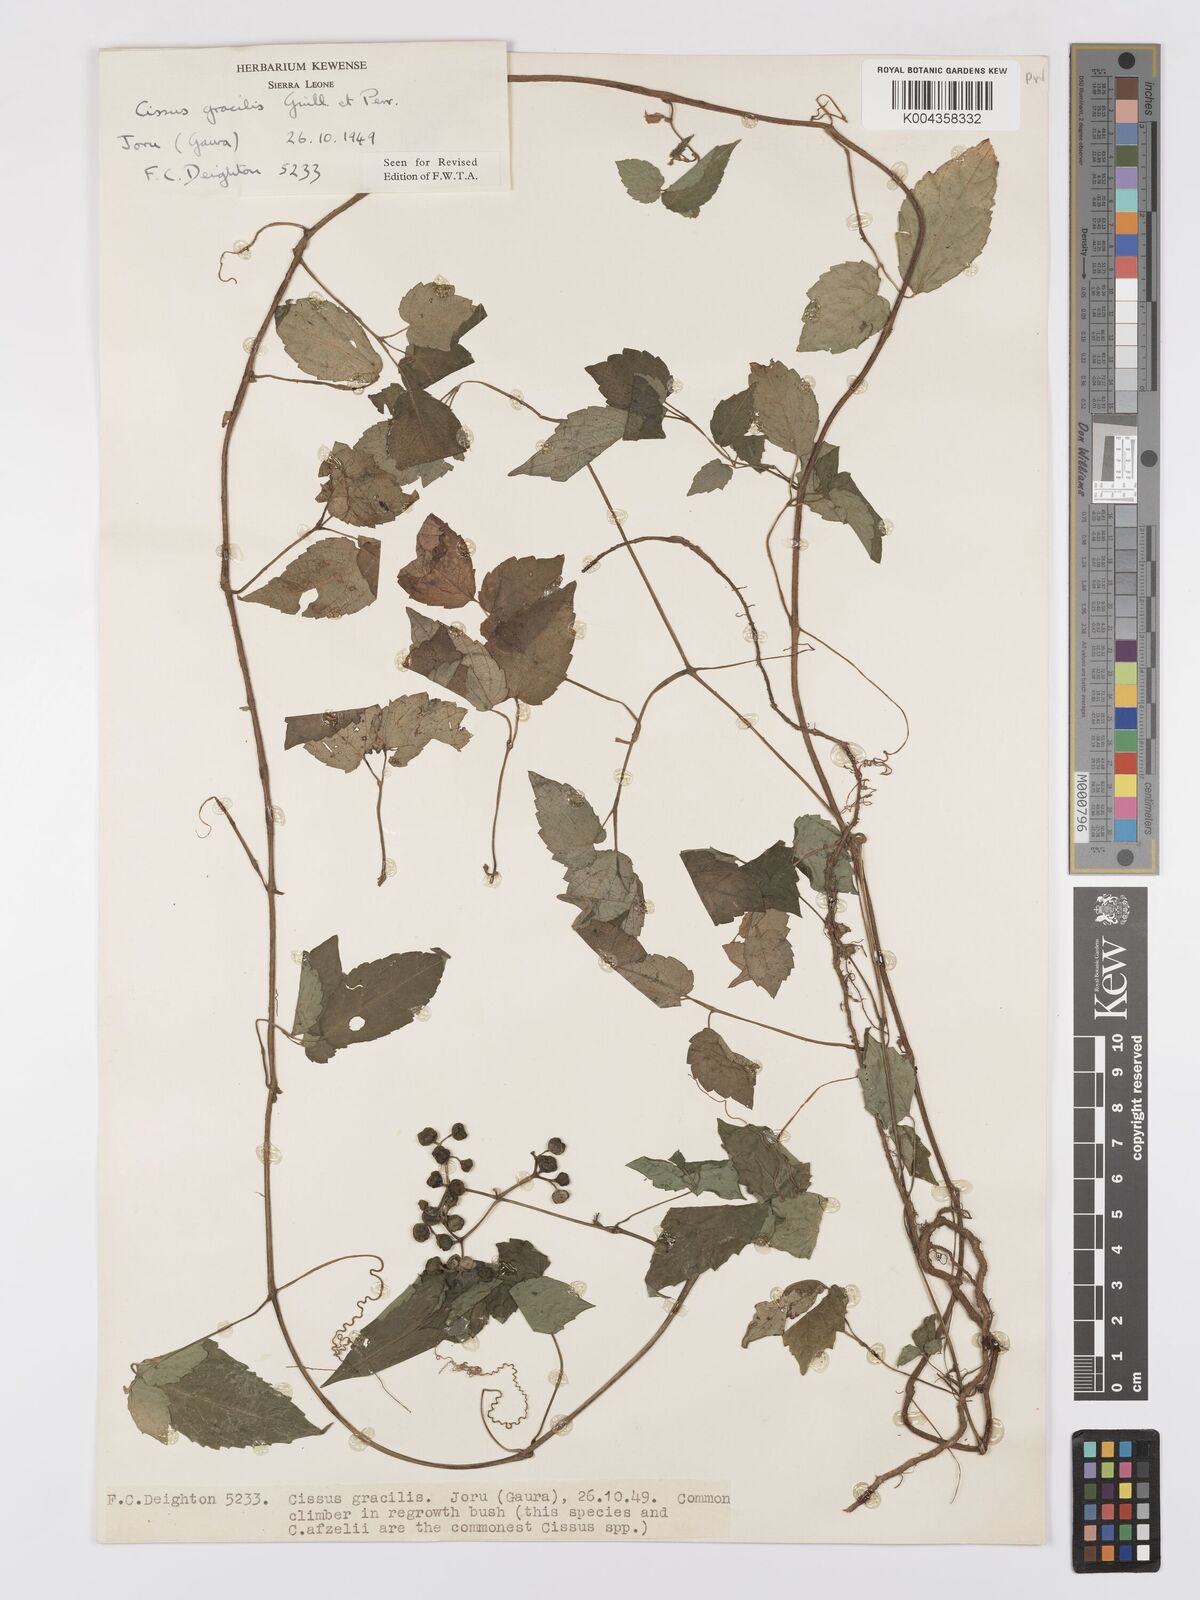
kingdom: Plantae
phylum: Tracheophyta
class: Magnoliopsida
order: Vitales
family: Vitaceae
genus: Afrocayratia
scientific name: Afrocayratia gracilis
